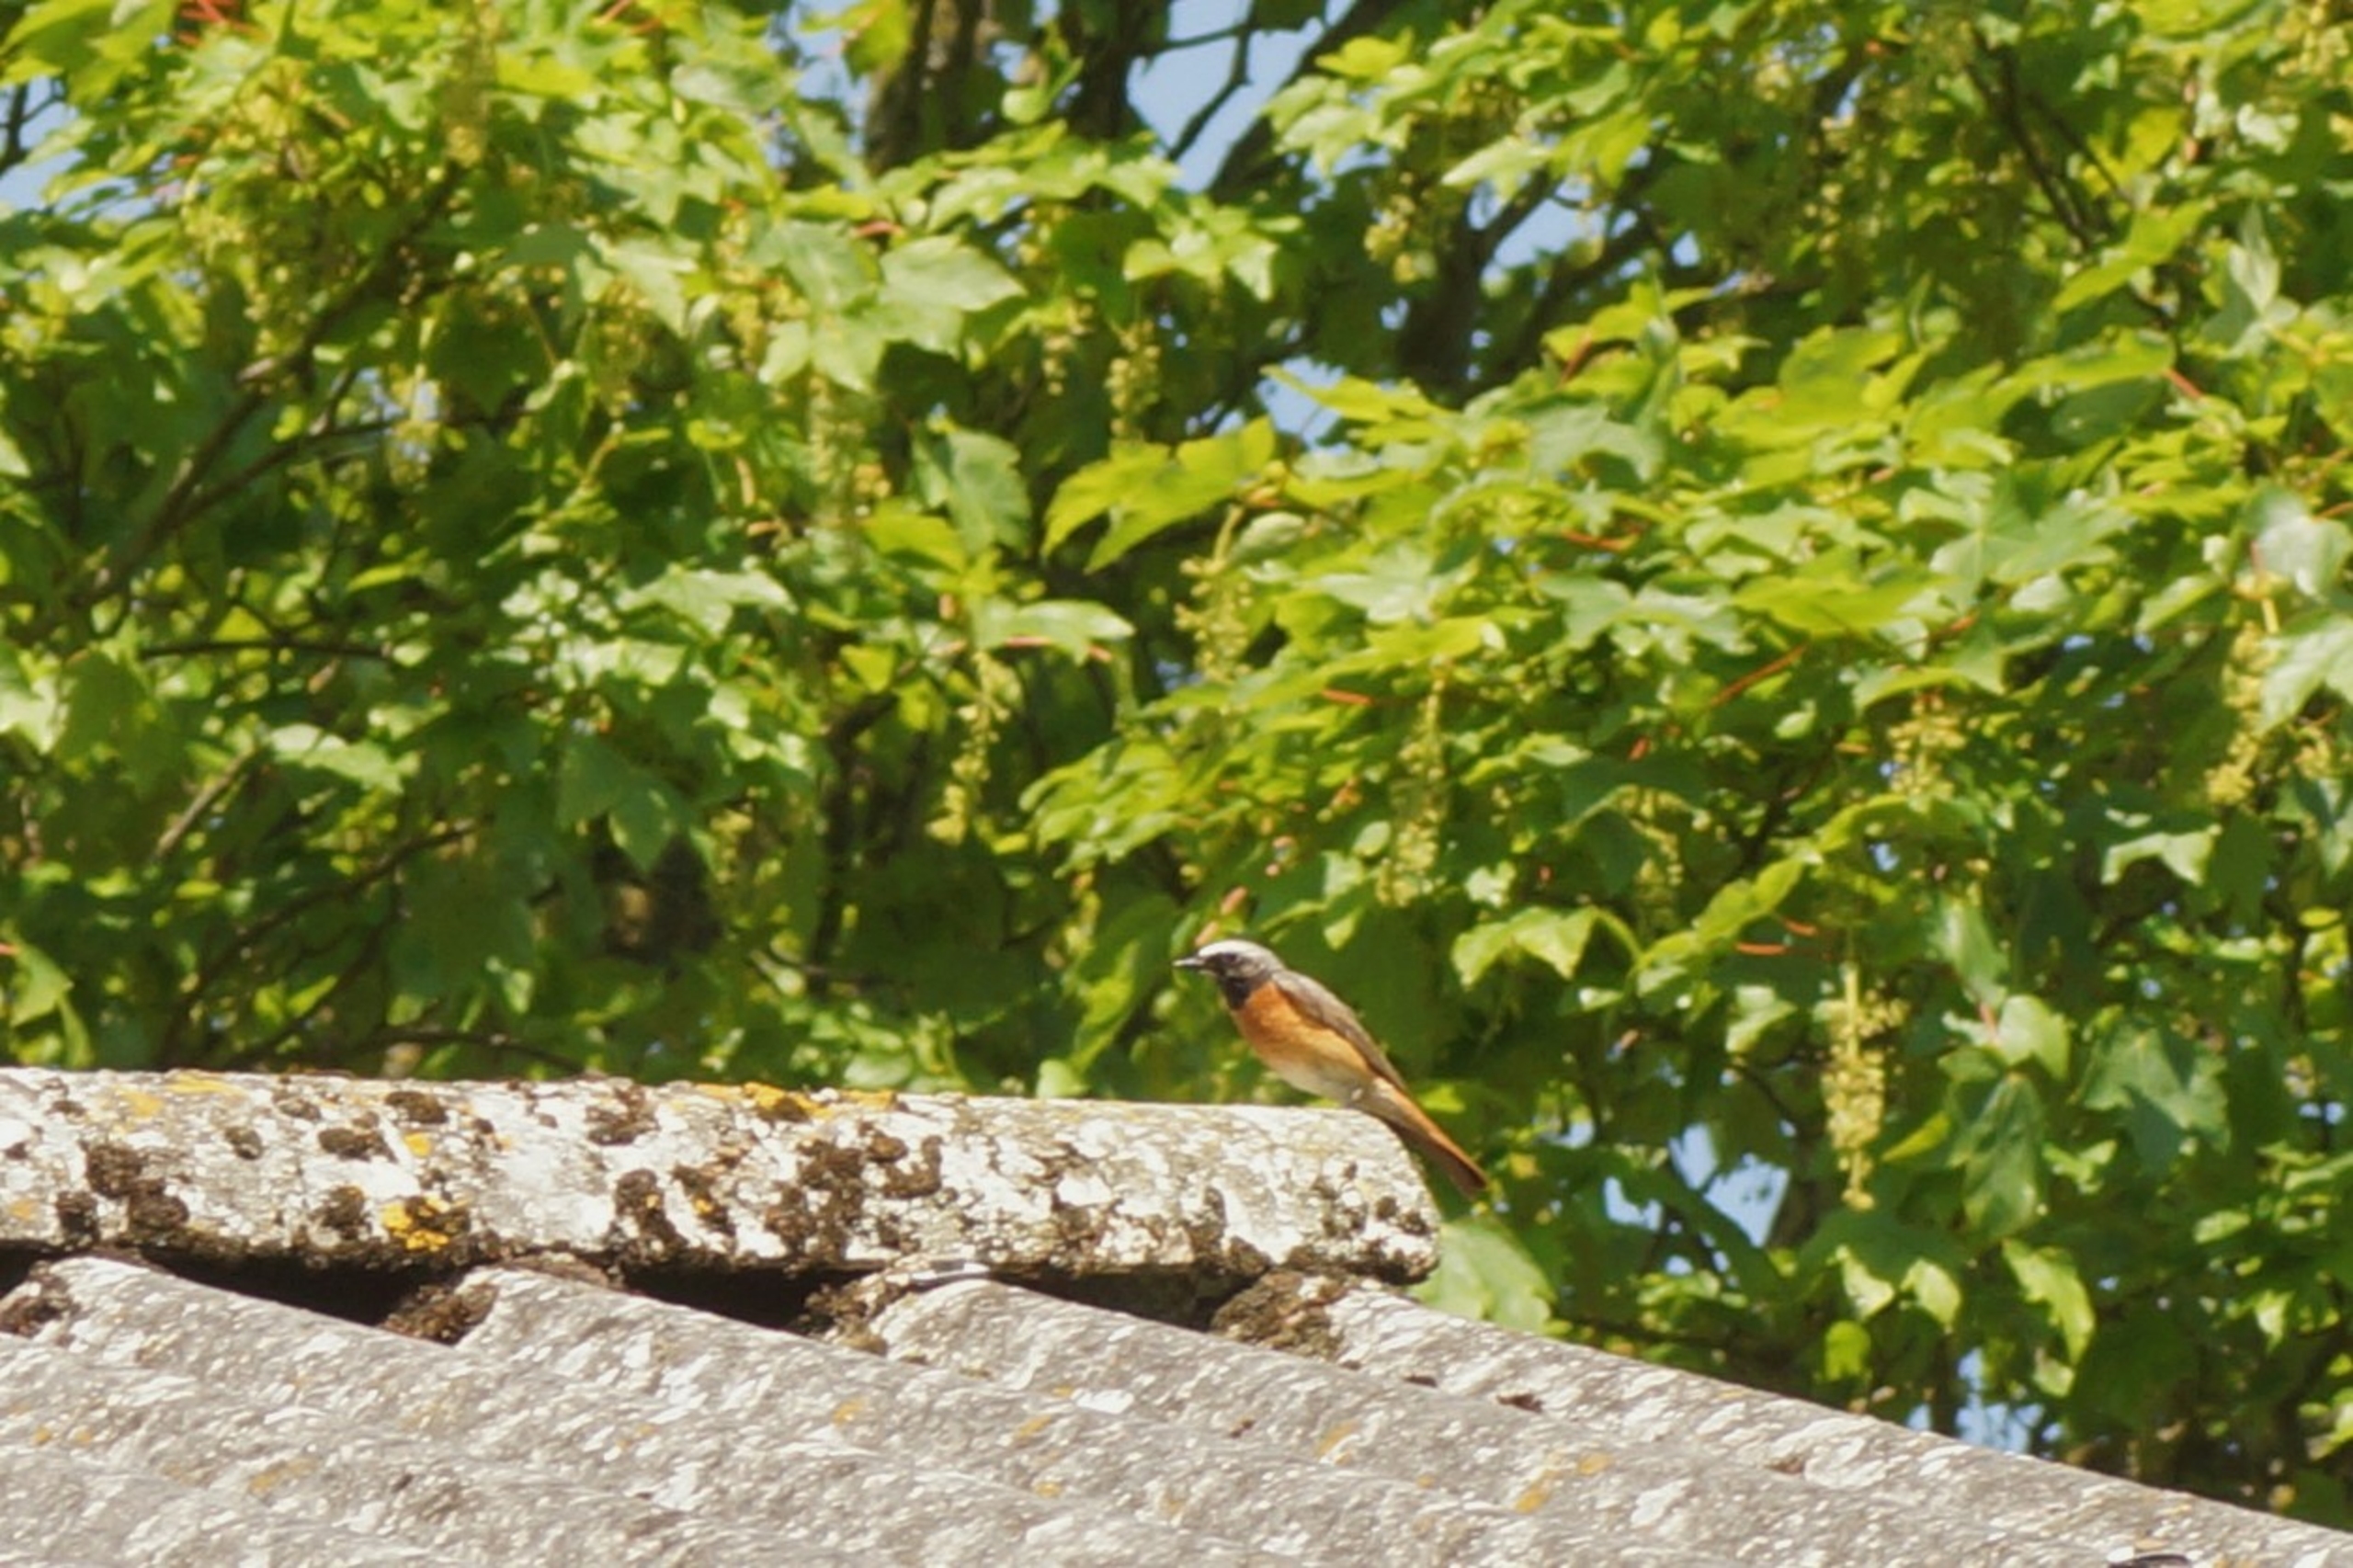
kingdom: Animalia
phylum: Chordata
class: Aves
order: Passeriformes
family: Muscicapidae
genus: Phoenicurus
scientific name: Phoenicurus phoenicurus
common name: Rødstjert
